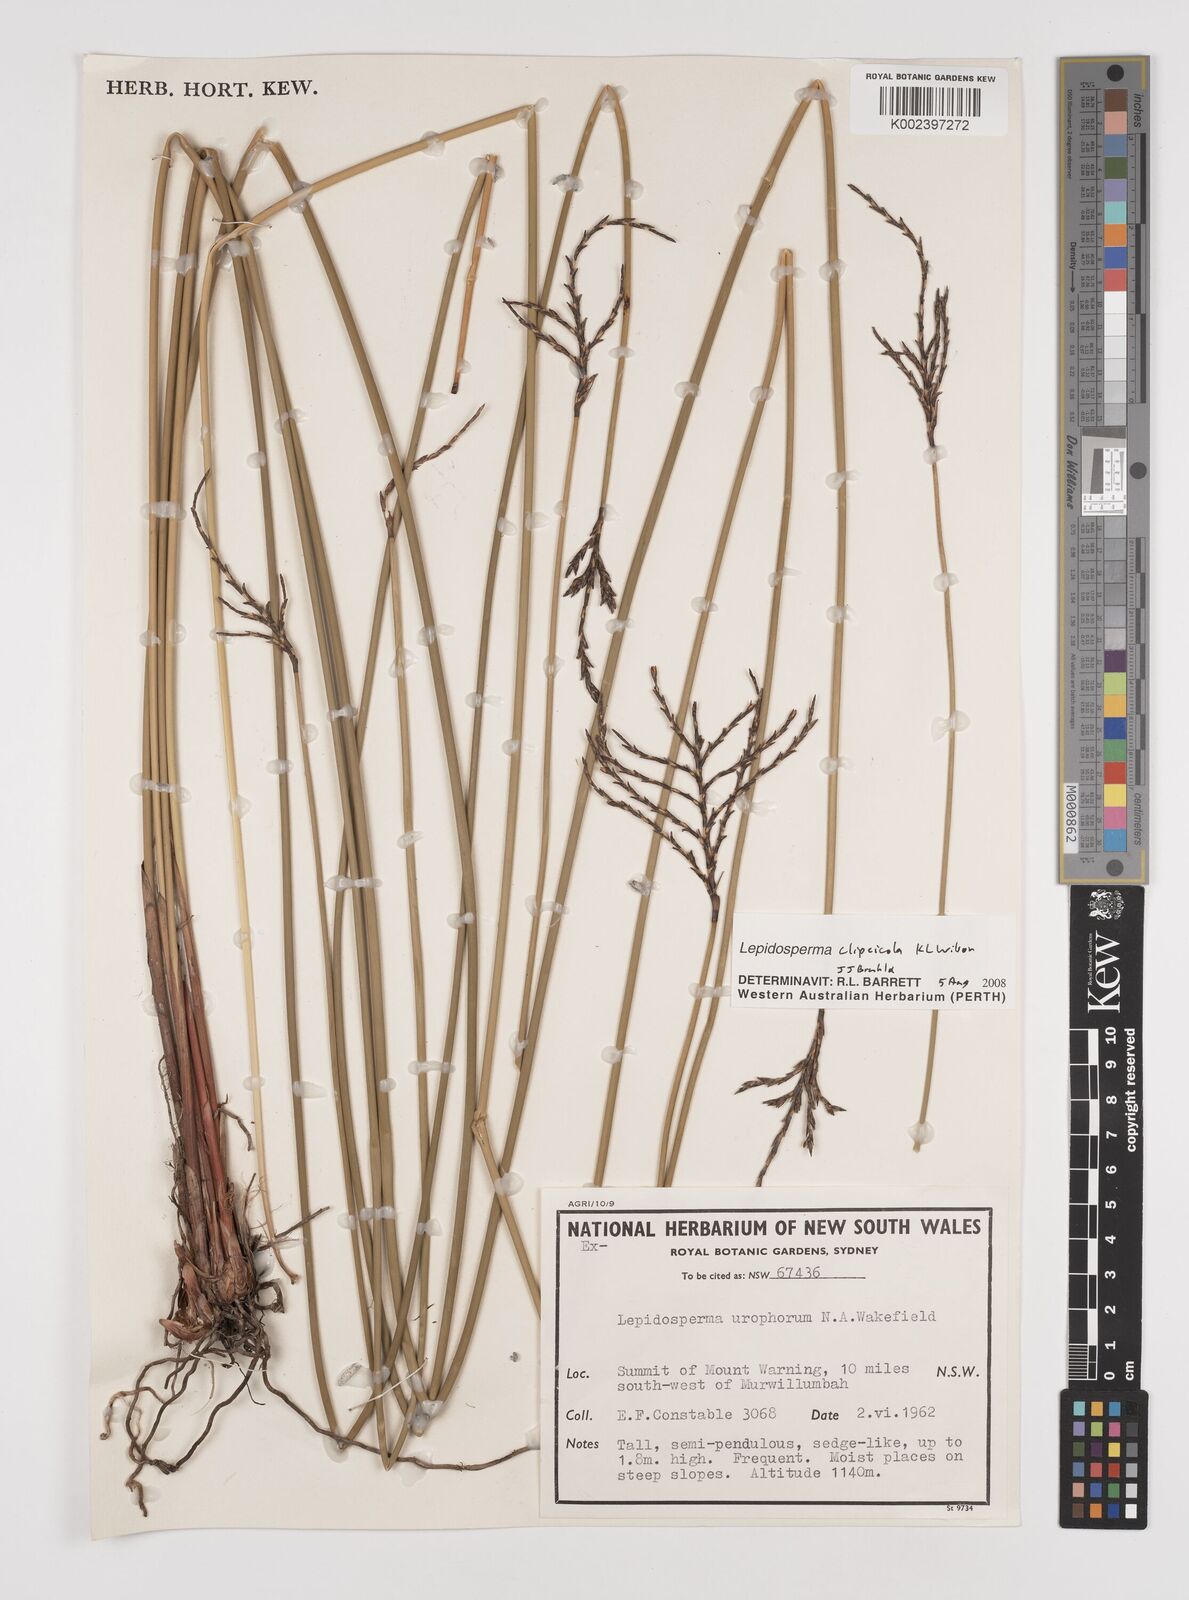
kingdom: Plantae
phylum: Tracheophyta
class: Liliopsida
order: Poales
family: Cyperaceae
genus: Lepidosperma
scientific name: Lepidosperma clipeicola
